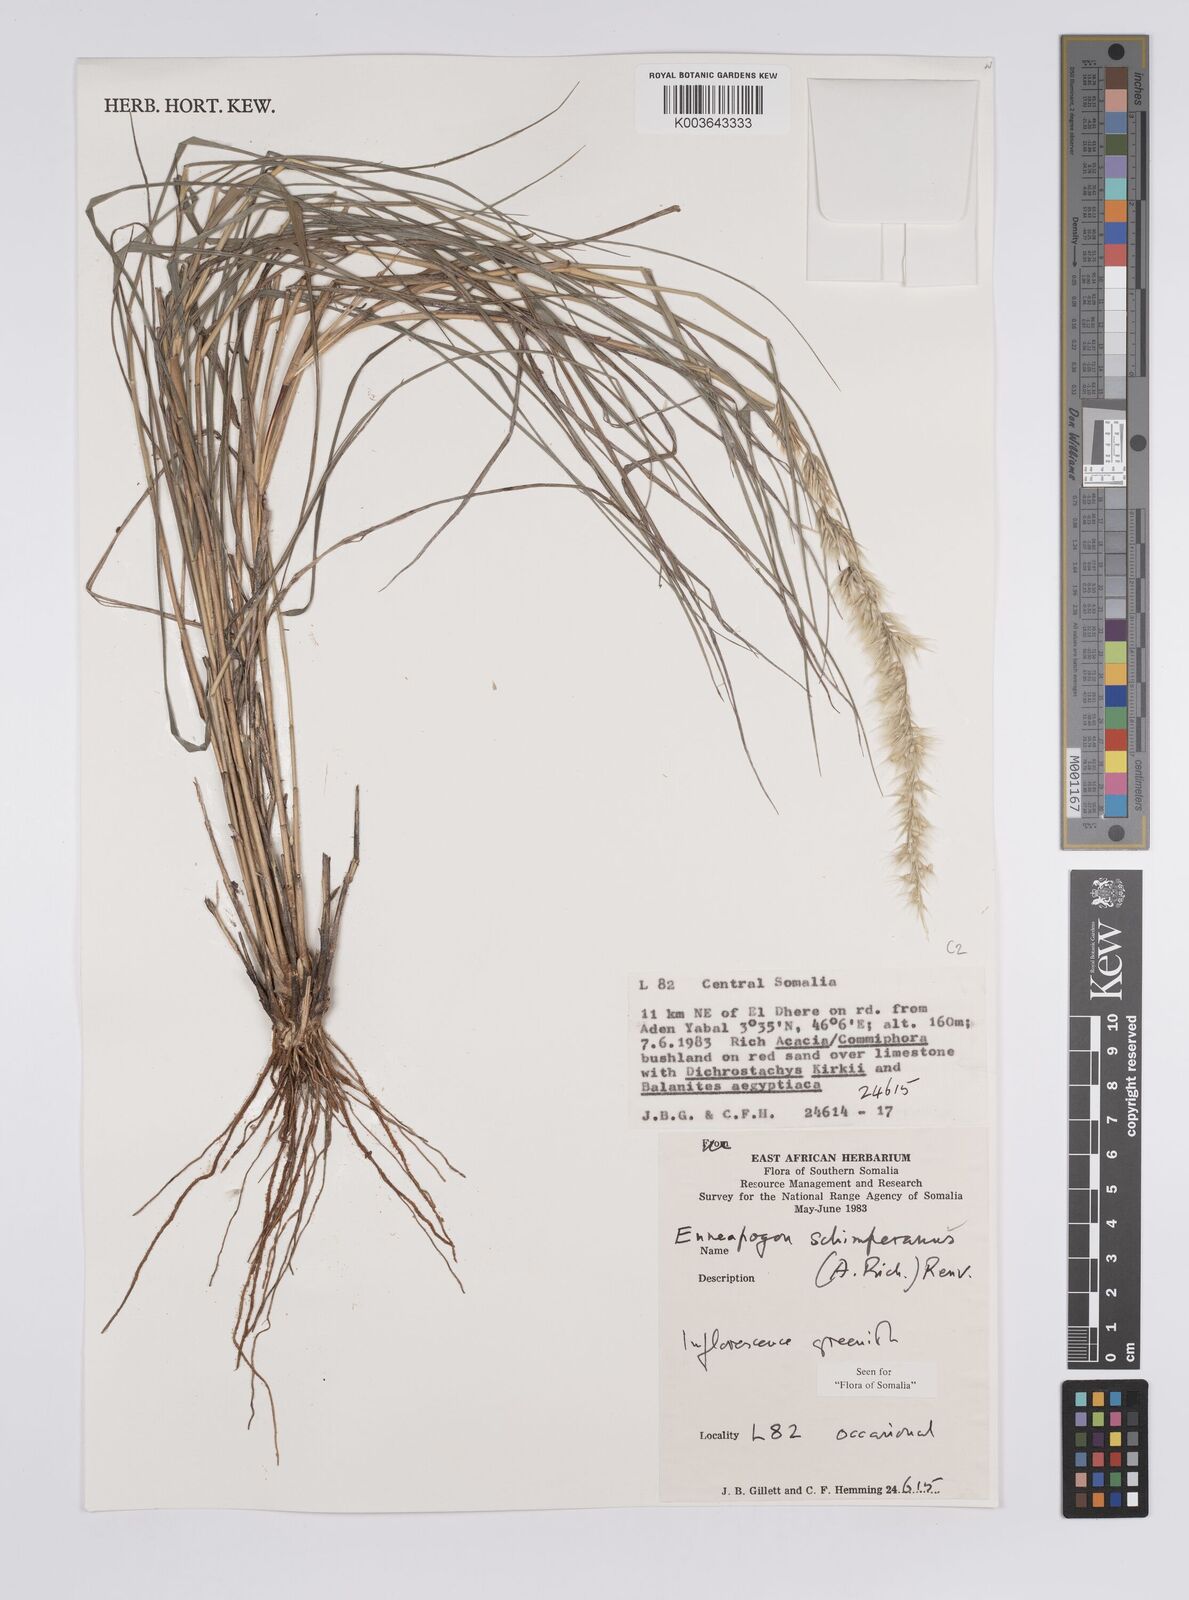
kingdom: Plantae
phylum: Tracheophyta
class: Liliopsida
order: Poales
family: Poaceae
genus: Enneapogon
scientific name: Enneapogon persicus
